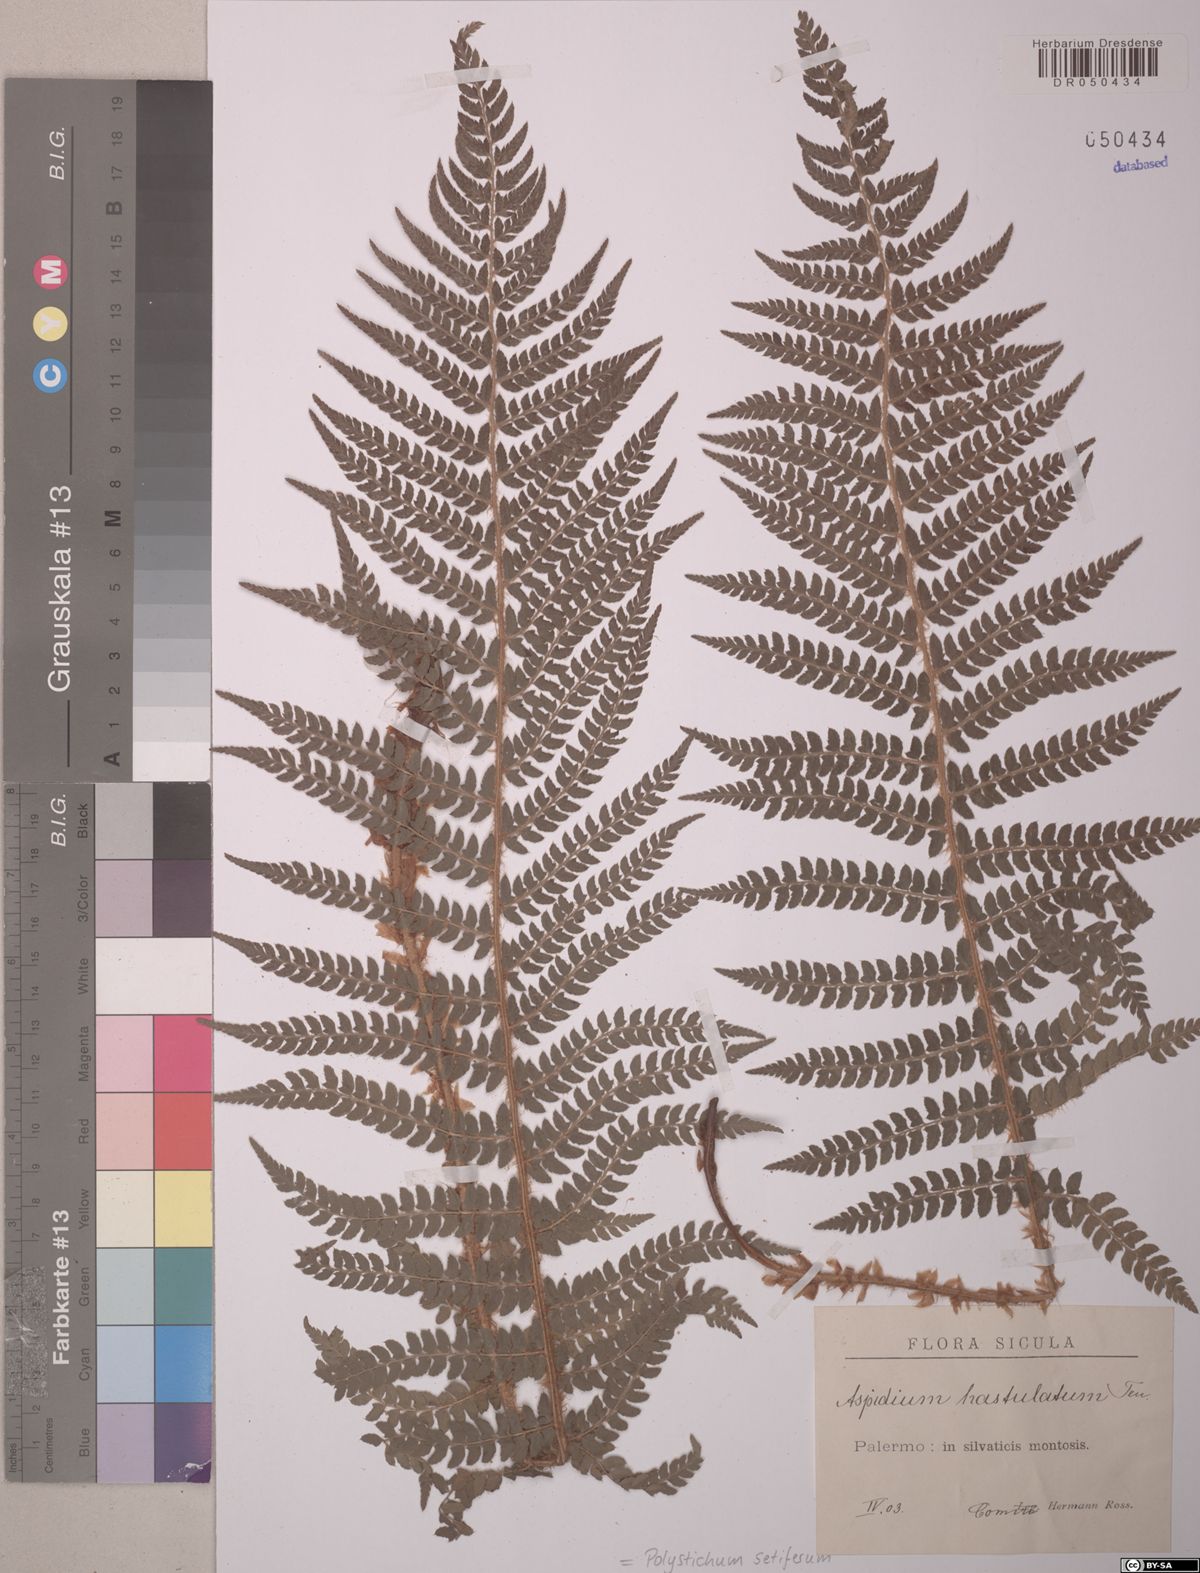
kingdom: Plantae
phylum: Tracheophyta
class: Polypodiopsida
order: Polypodiales
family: Dryopteridaceae
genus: Polystichum
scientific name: Polystichum setiferum
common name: Soft shield-fern
